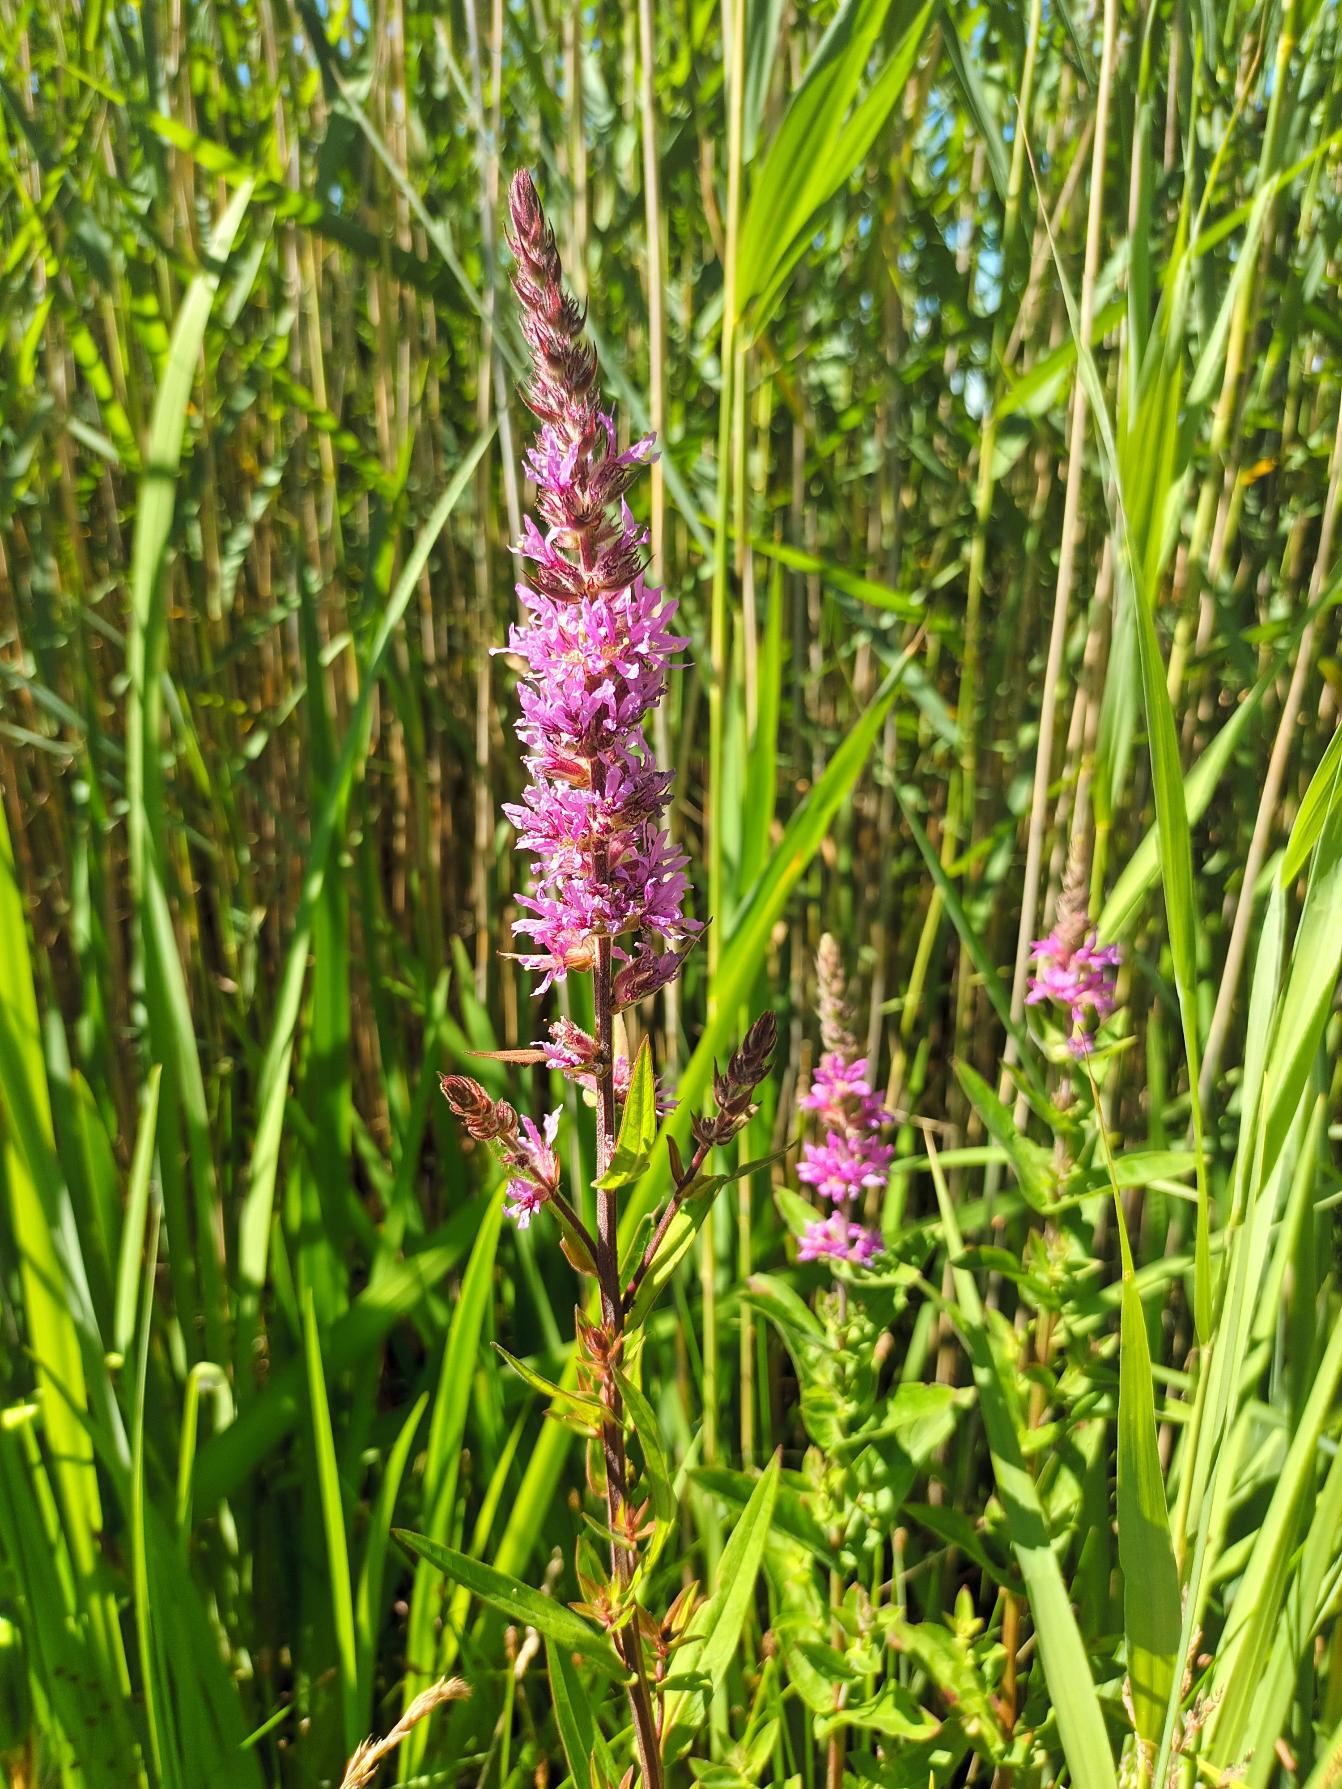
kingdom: Plantae
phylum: Tracheophyta
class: Magnoliopsida
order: Myrtales
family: Lythraceae
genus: Lythrum
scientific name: Lythrum salicaria
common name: Kattehale
